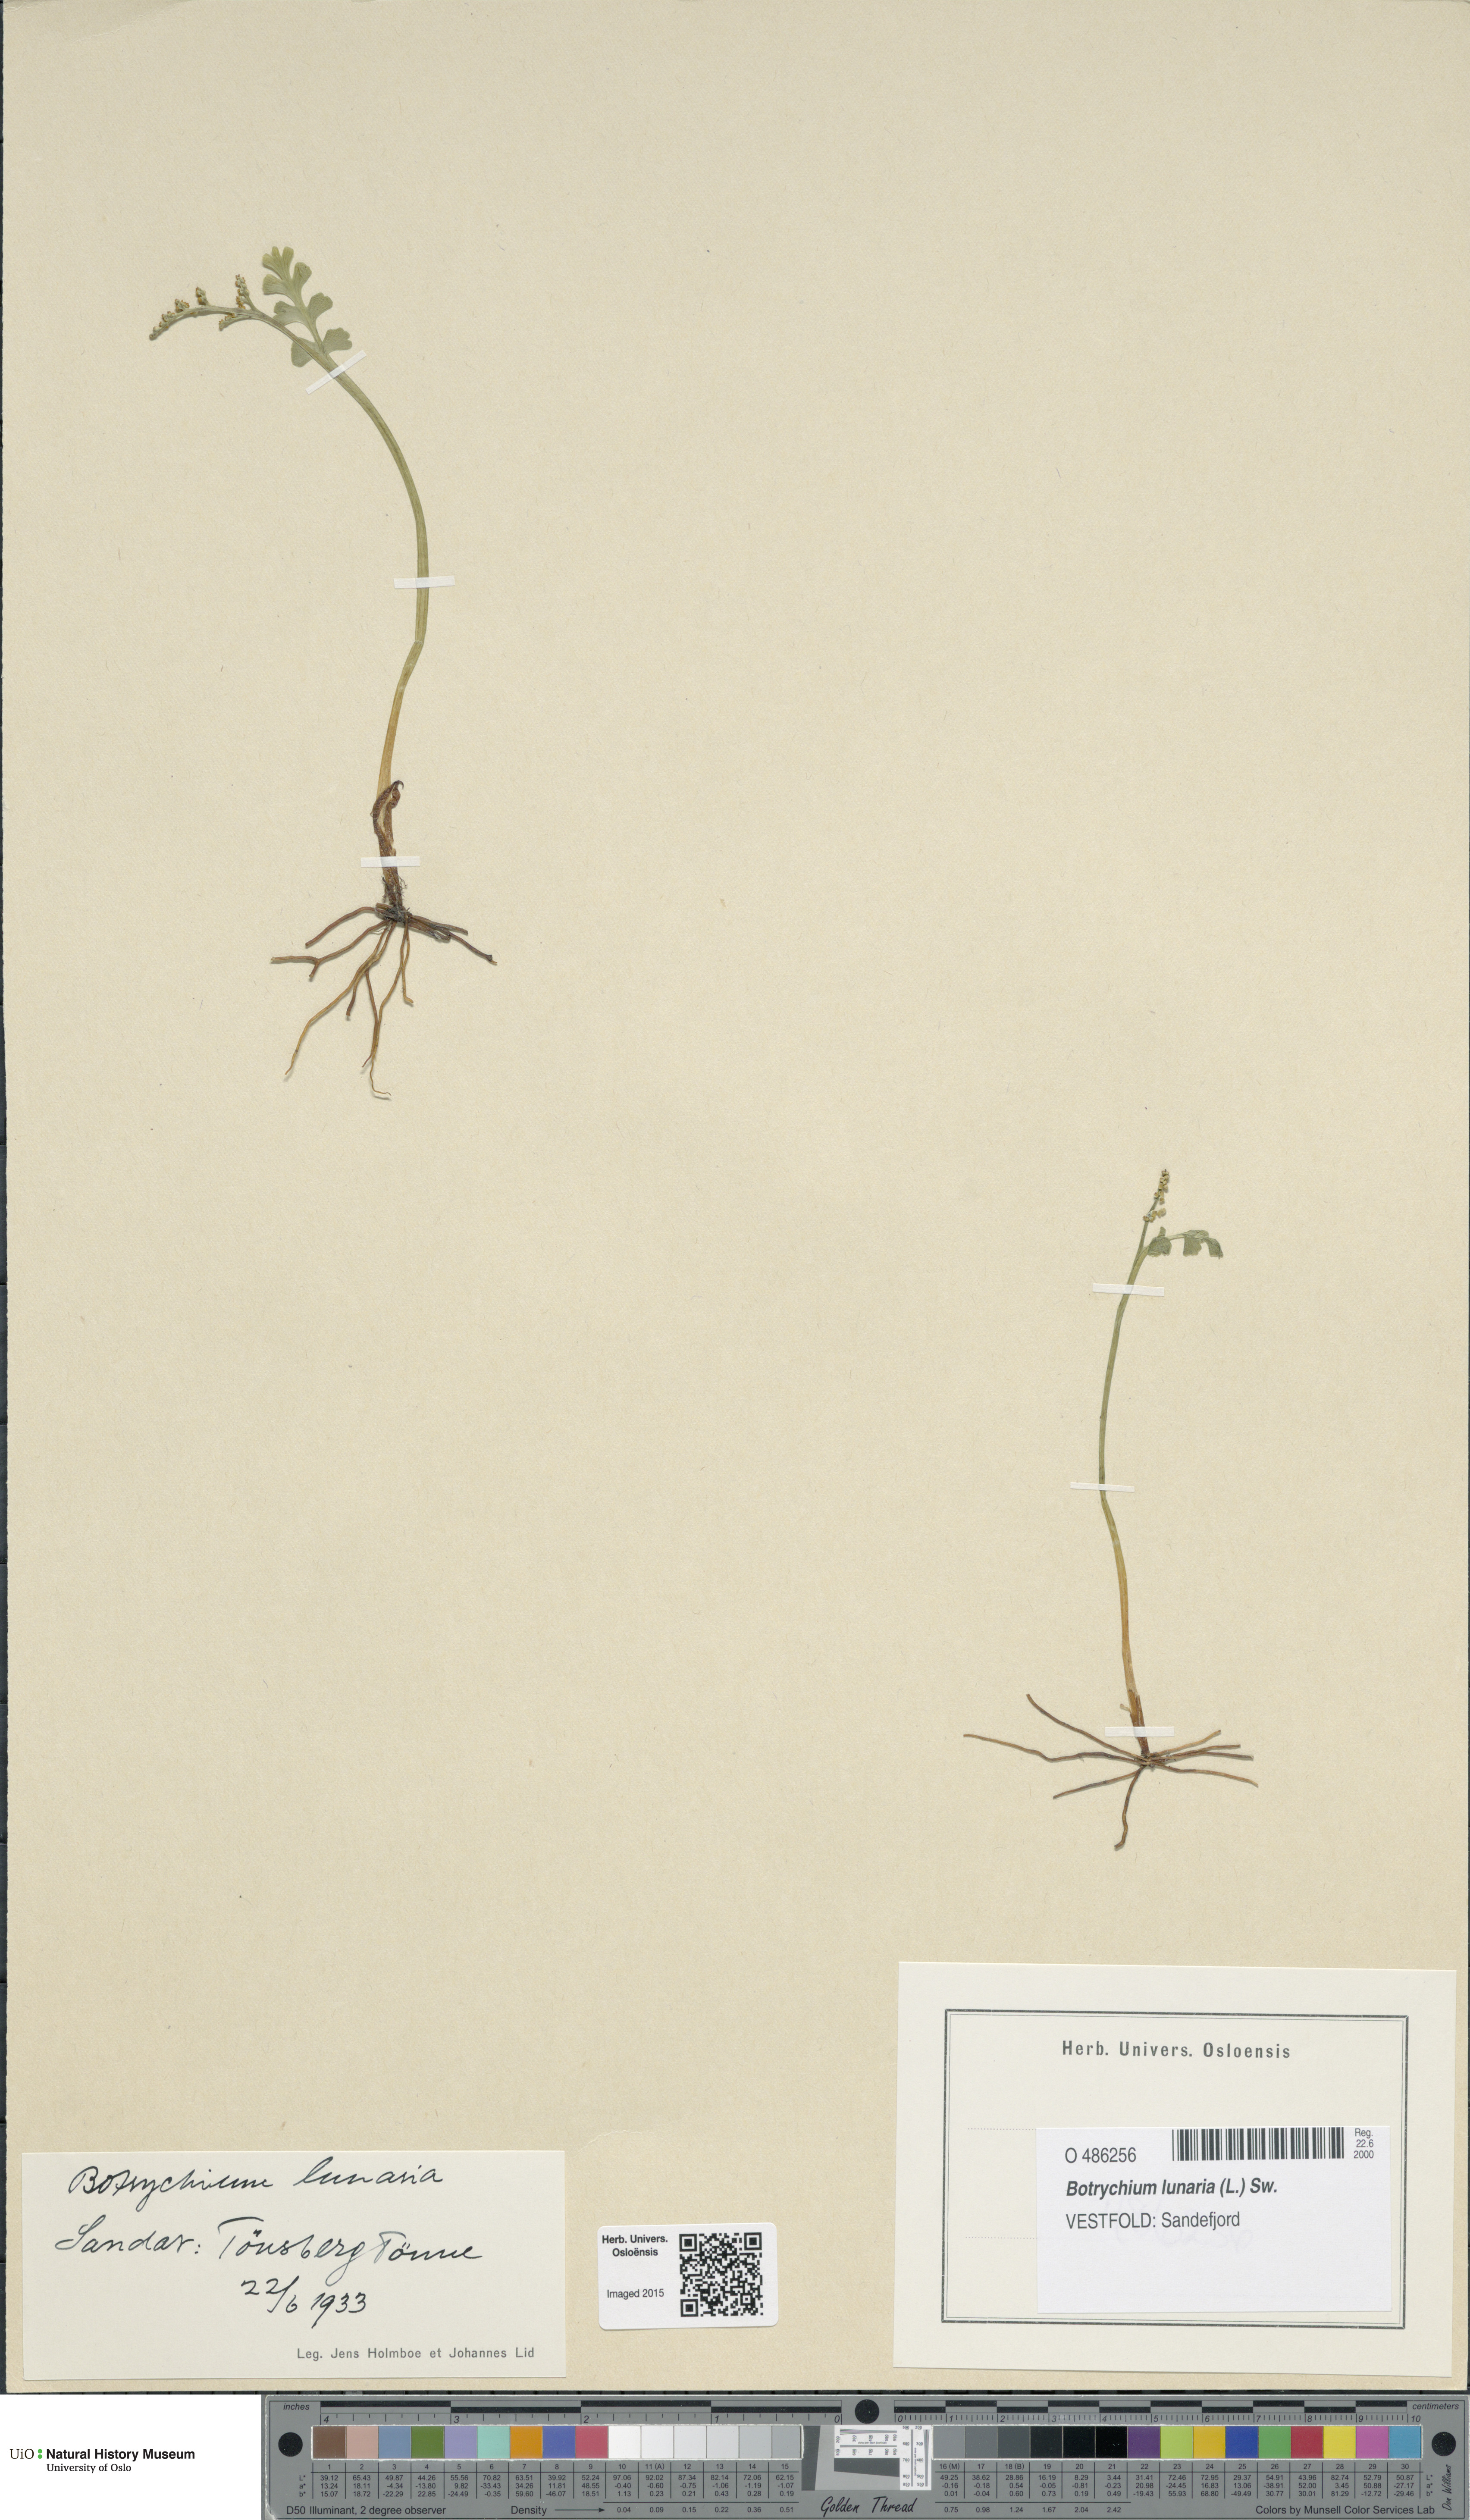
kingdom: Plantae
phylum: Tracheophyta
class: Polypodiopsida
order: Ophioglossales
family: Ophioglossaceae
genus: Botrychium
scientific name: Botrychium lunaria
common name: Moonwort
